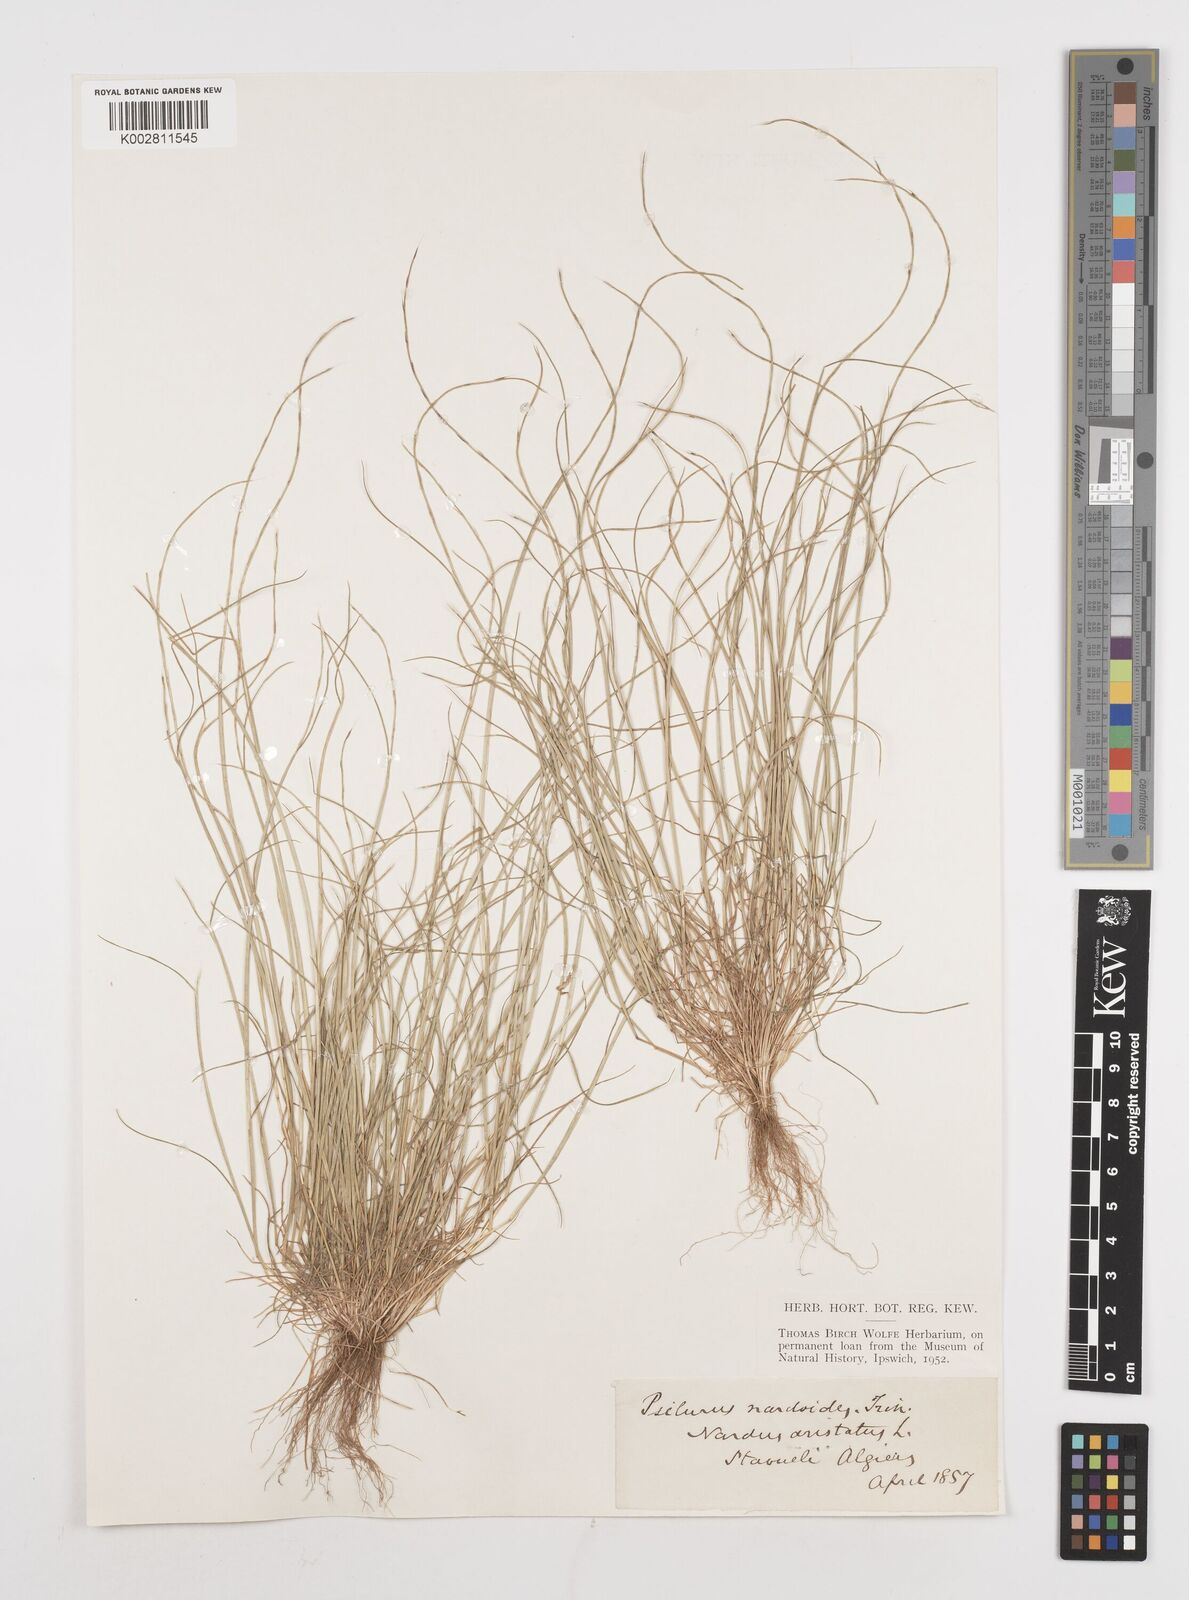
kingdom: Plantae
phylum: Tracheophyta
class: Liliopsida
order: Poales
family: Poaceae
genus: Festuca
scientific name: Festuca
